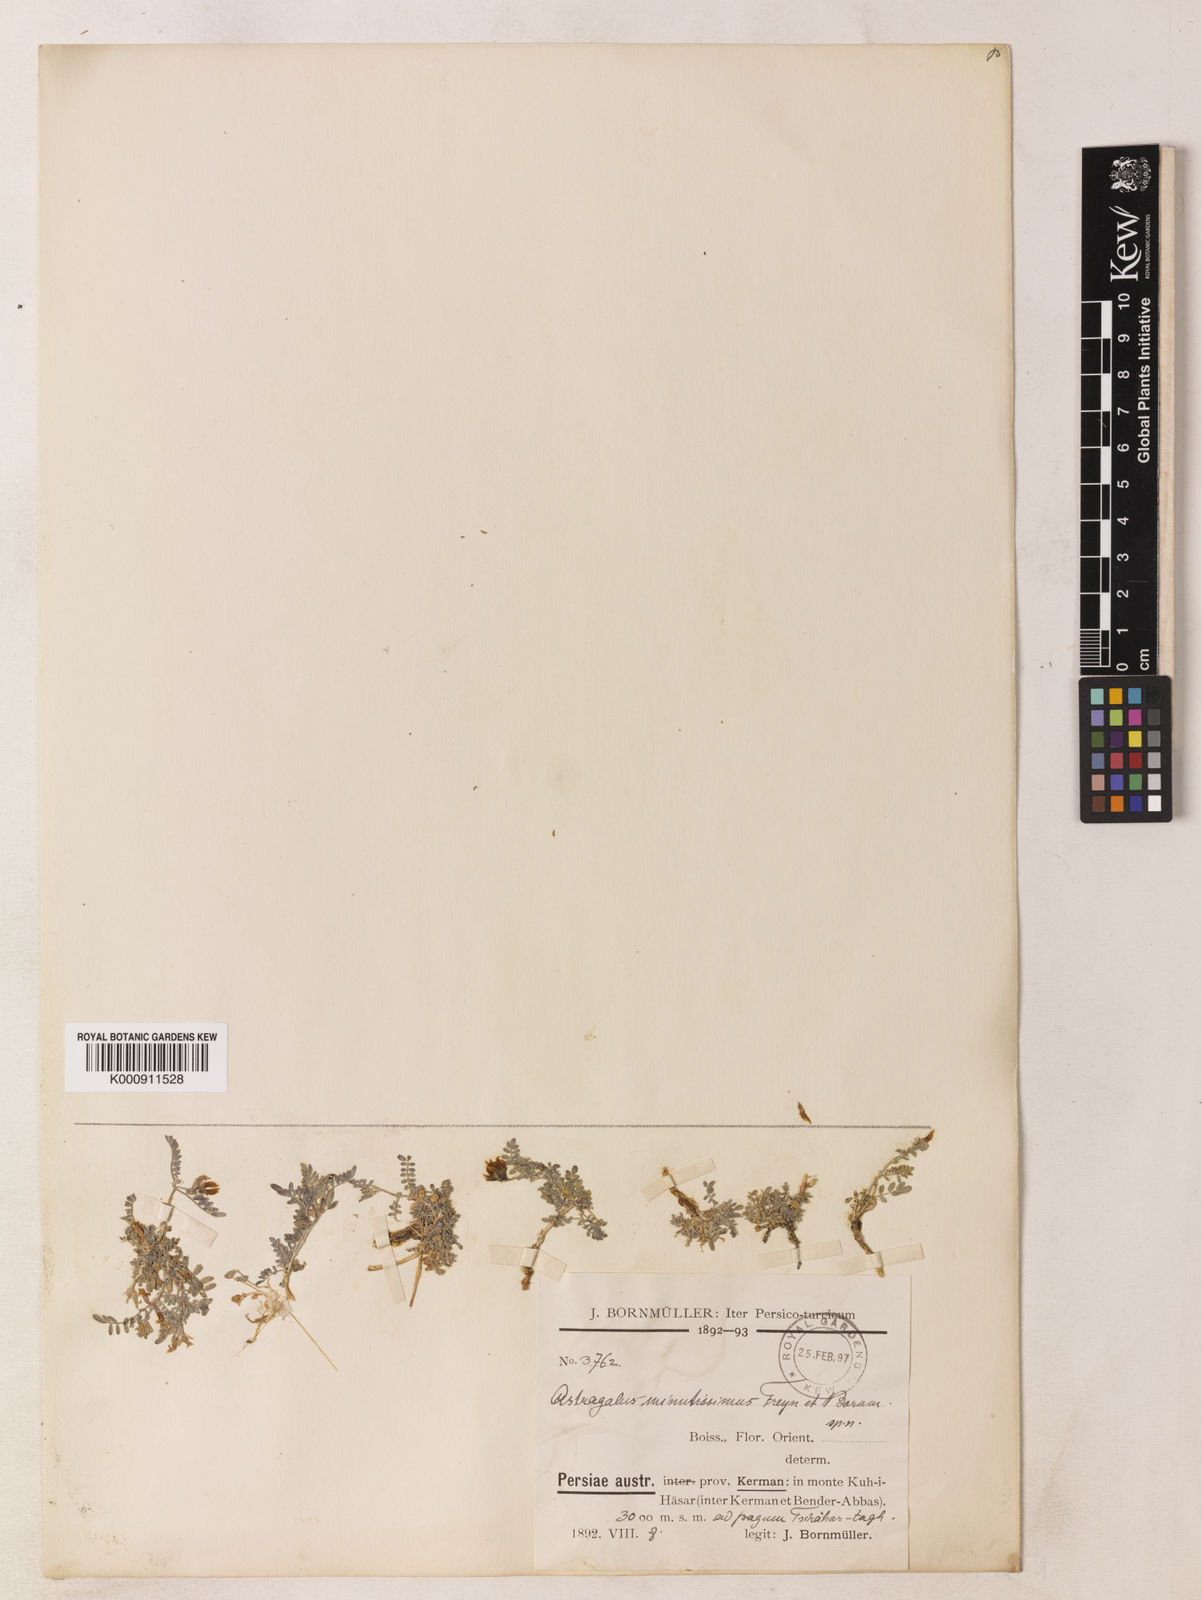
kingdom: Plantae
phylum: Tracheophyta
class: Magnoliopsida
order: Fabales
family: Fabaceae
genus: Astragalus
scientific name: Astragalus confertiformis
